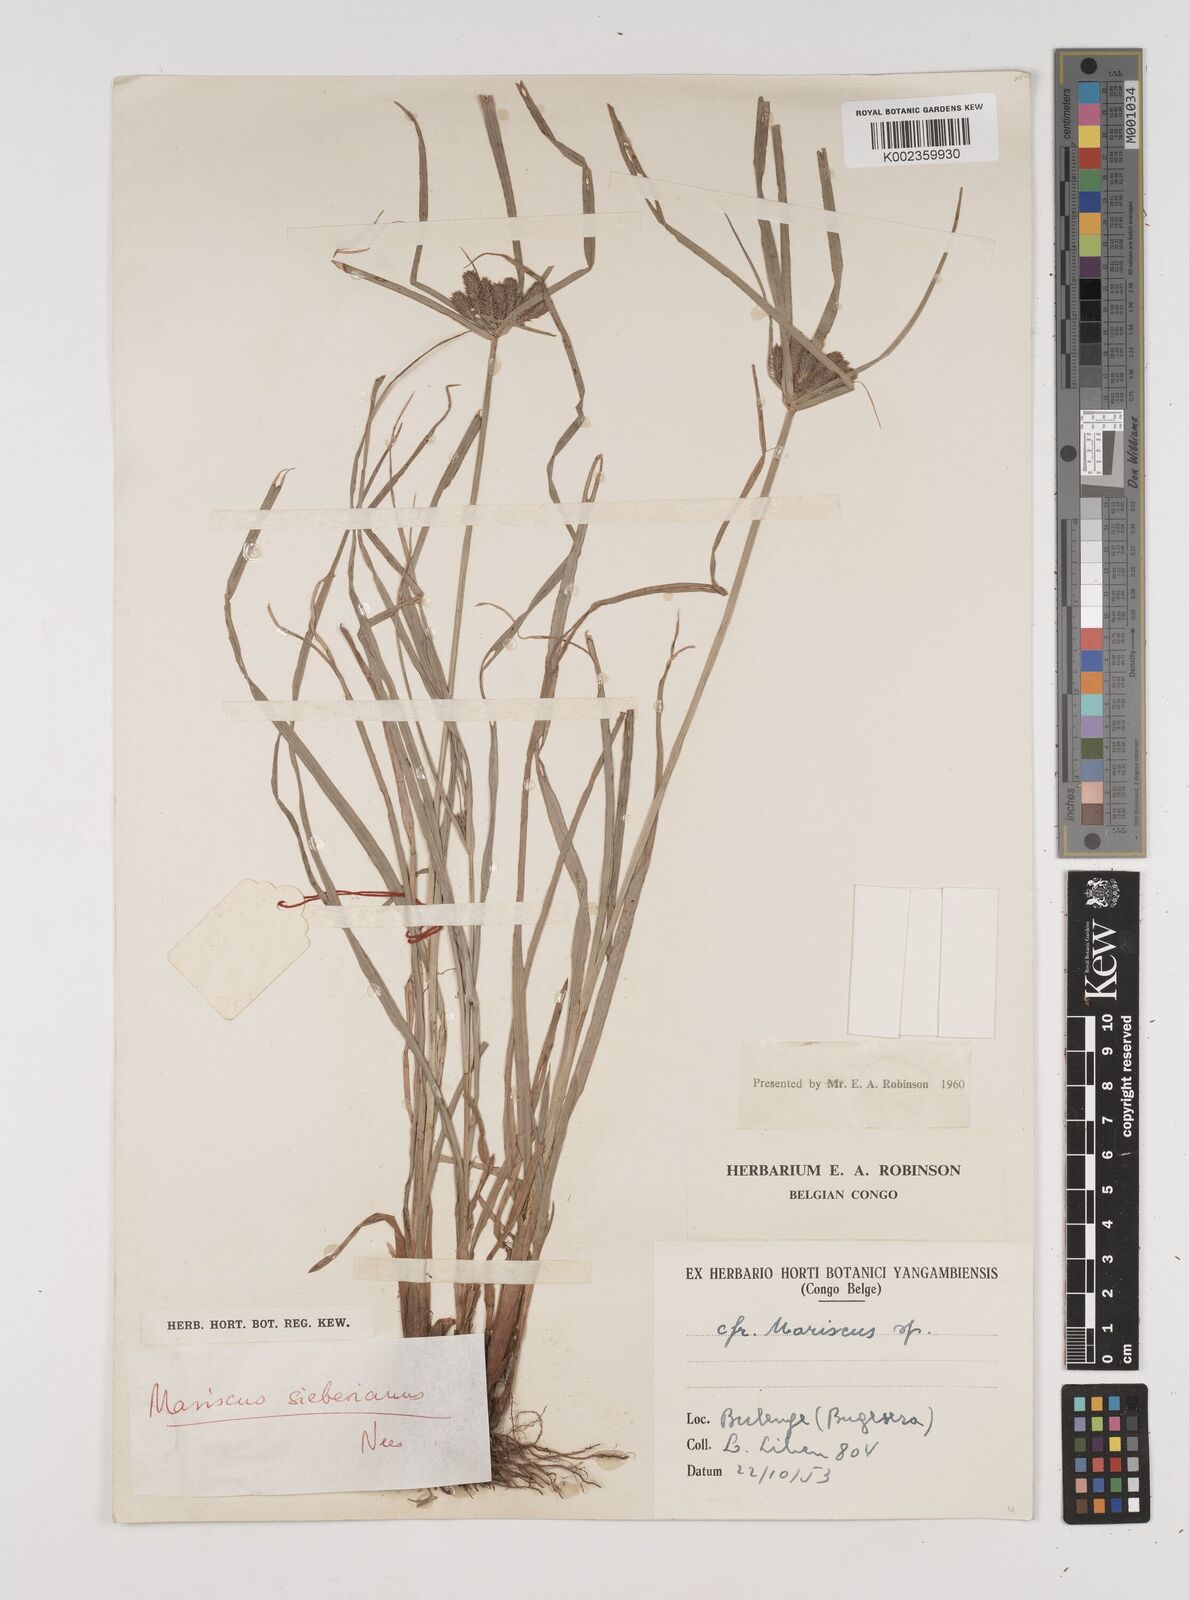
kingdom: Plantae
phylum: Tracheophyta
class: Liliopsida
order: Poales
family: Cyperaceae
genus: Cyperus
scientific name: Cyperus cyperoides
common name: Pacific island flat sedge
